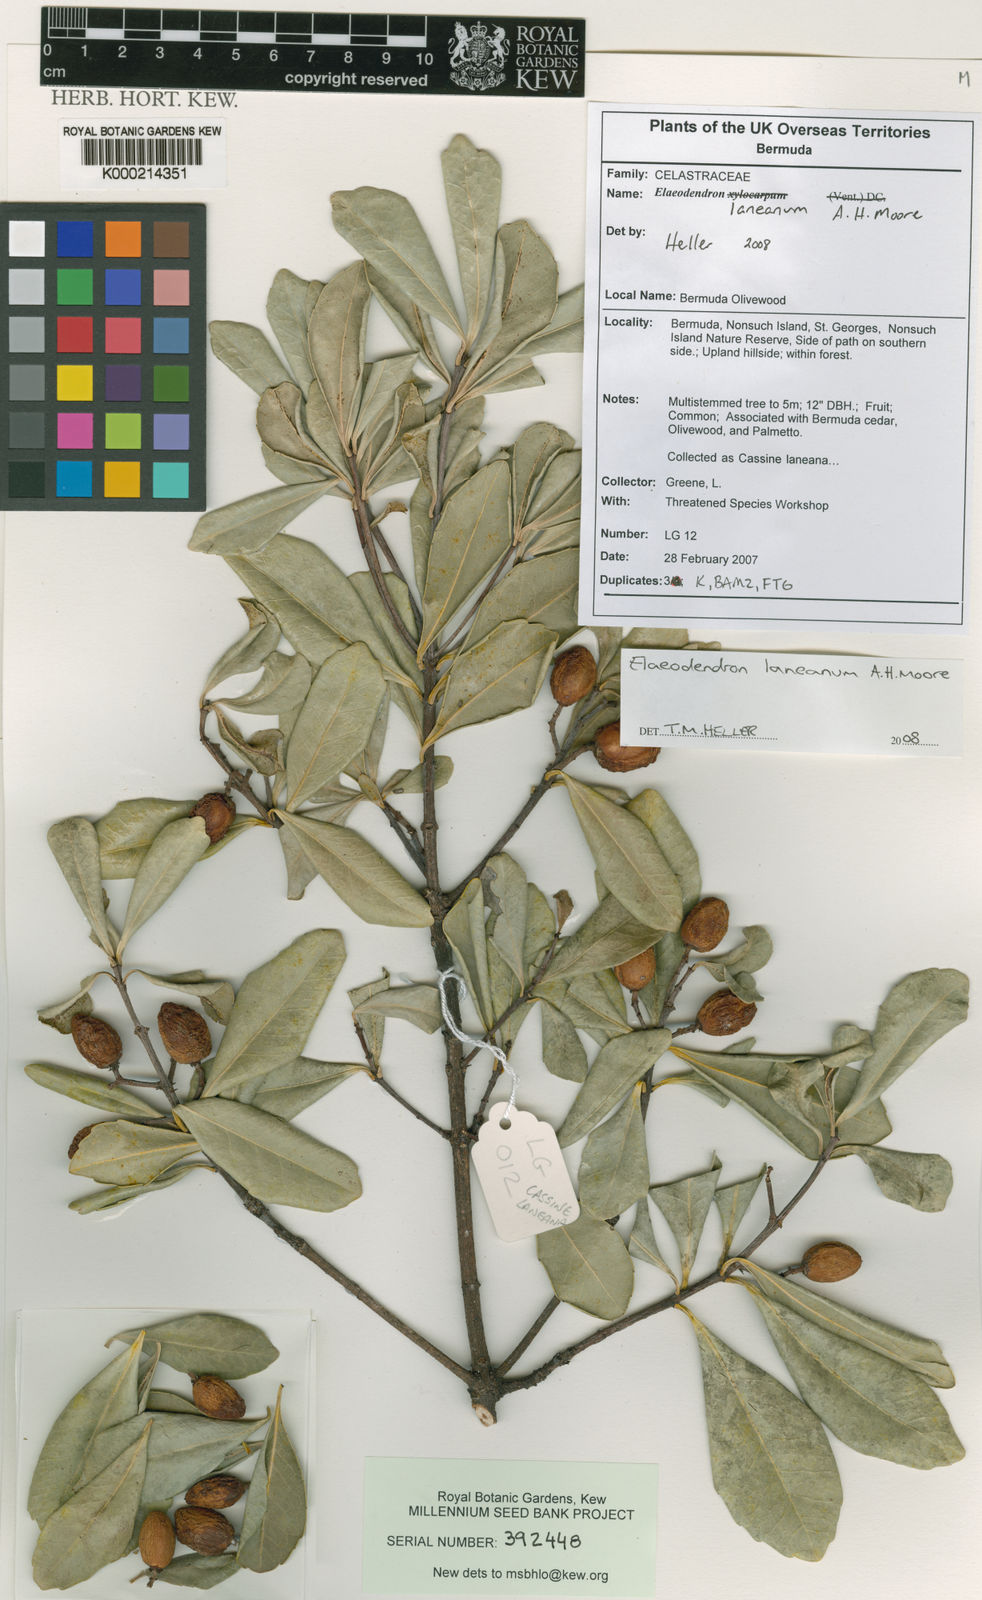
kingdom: Plantae
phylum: Tracheophyta
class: Magnoliopsida
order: Celastrales
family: Celastraceae
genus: Elaeodendron
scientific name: Elaeodendron laneanum
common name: Bermuda olivewood
